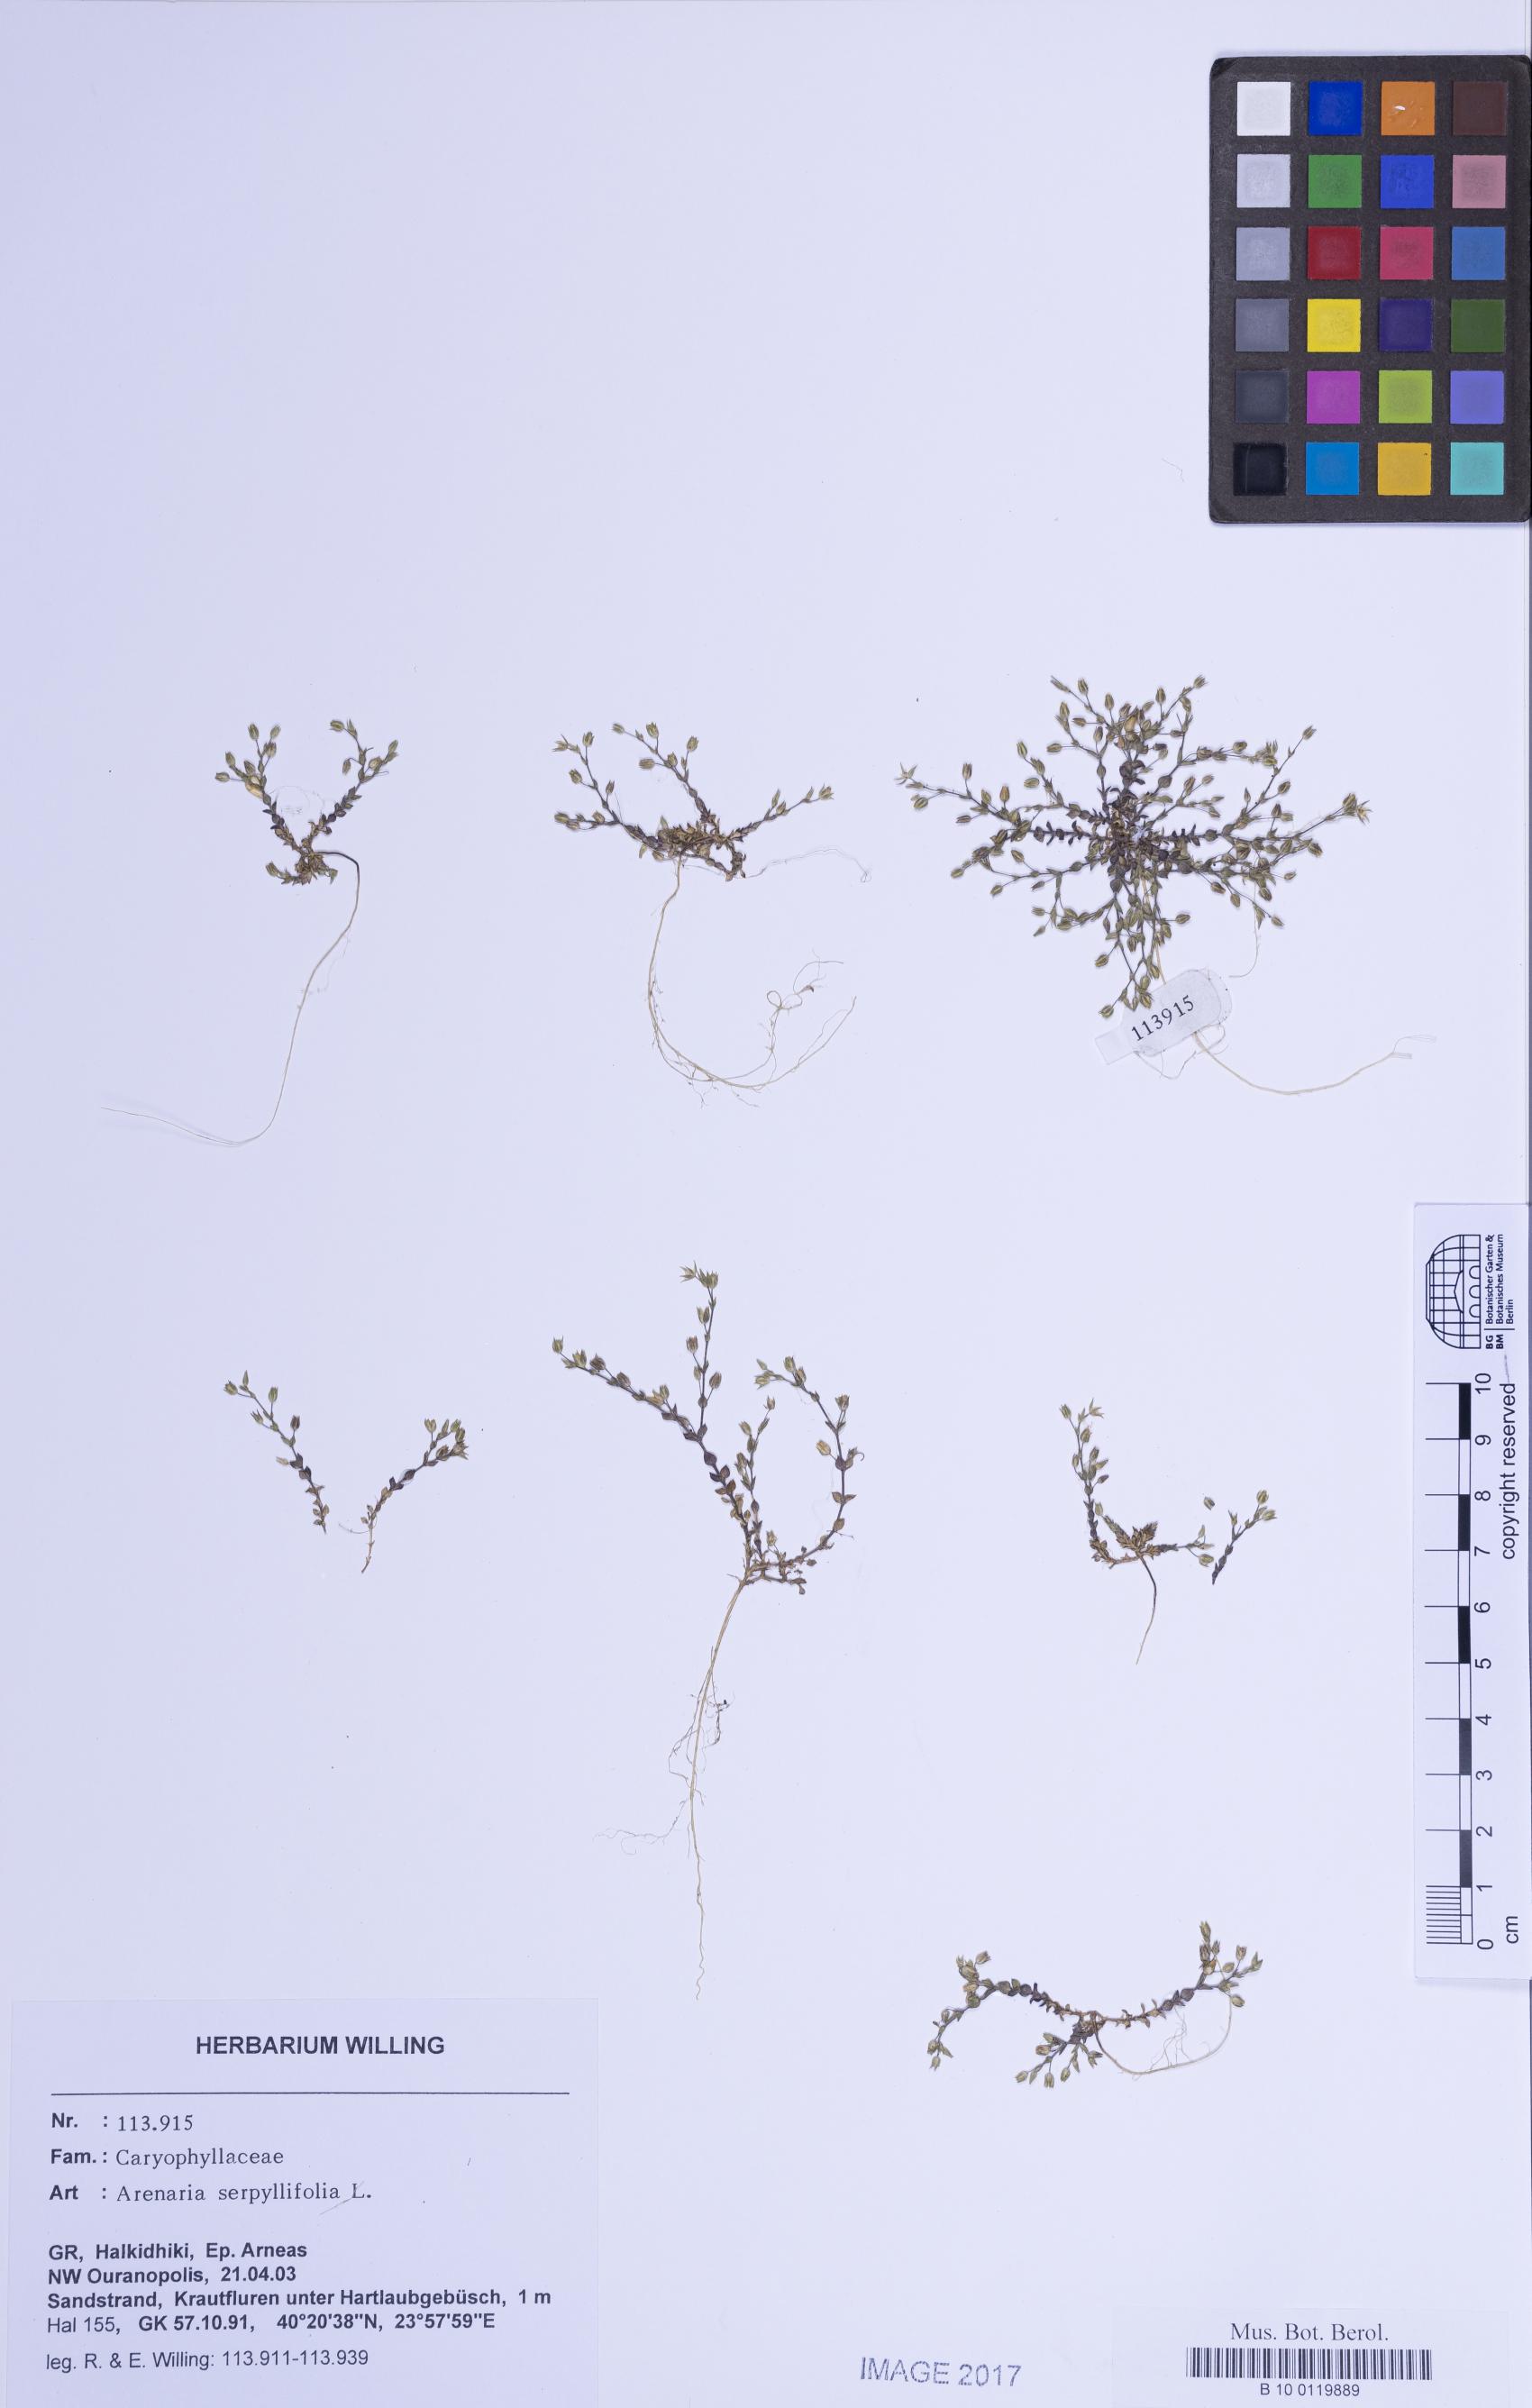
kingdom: Plantae
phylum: Tracheophyta
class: Magnoliopsida
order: Caryophyllales
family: Caryophyllaceae
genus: Arenaria
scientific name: Arenaria serpyllifolia
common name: Thyme-leaved sandwort
